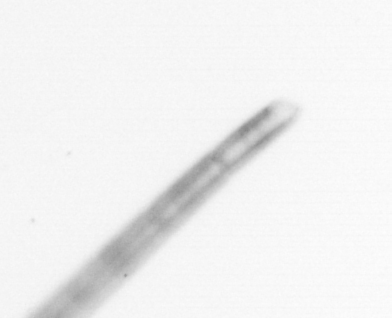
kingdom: Chromista
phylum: Ochrophyta
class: Bacillariophyceae
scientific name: Bacillariophyceae
